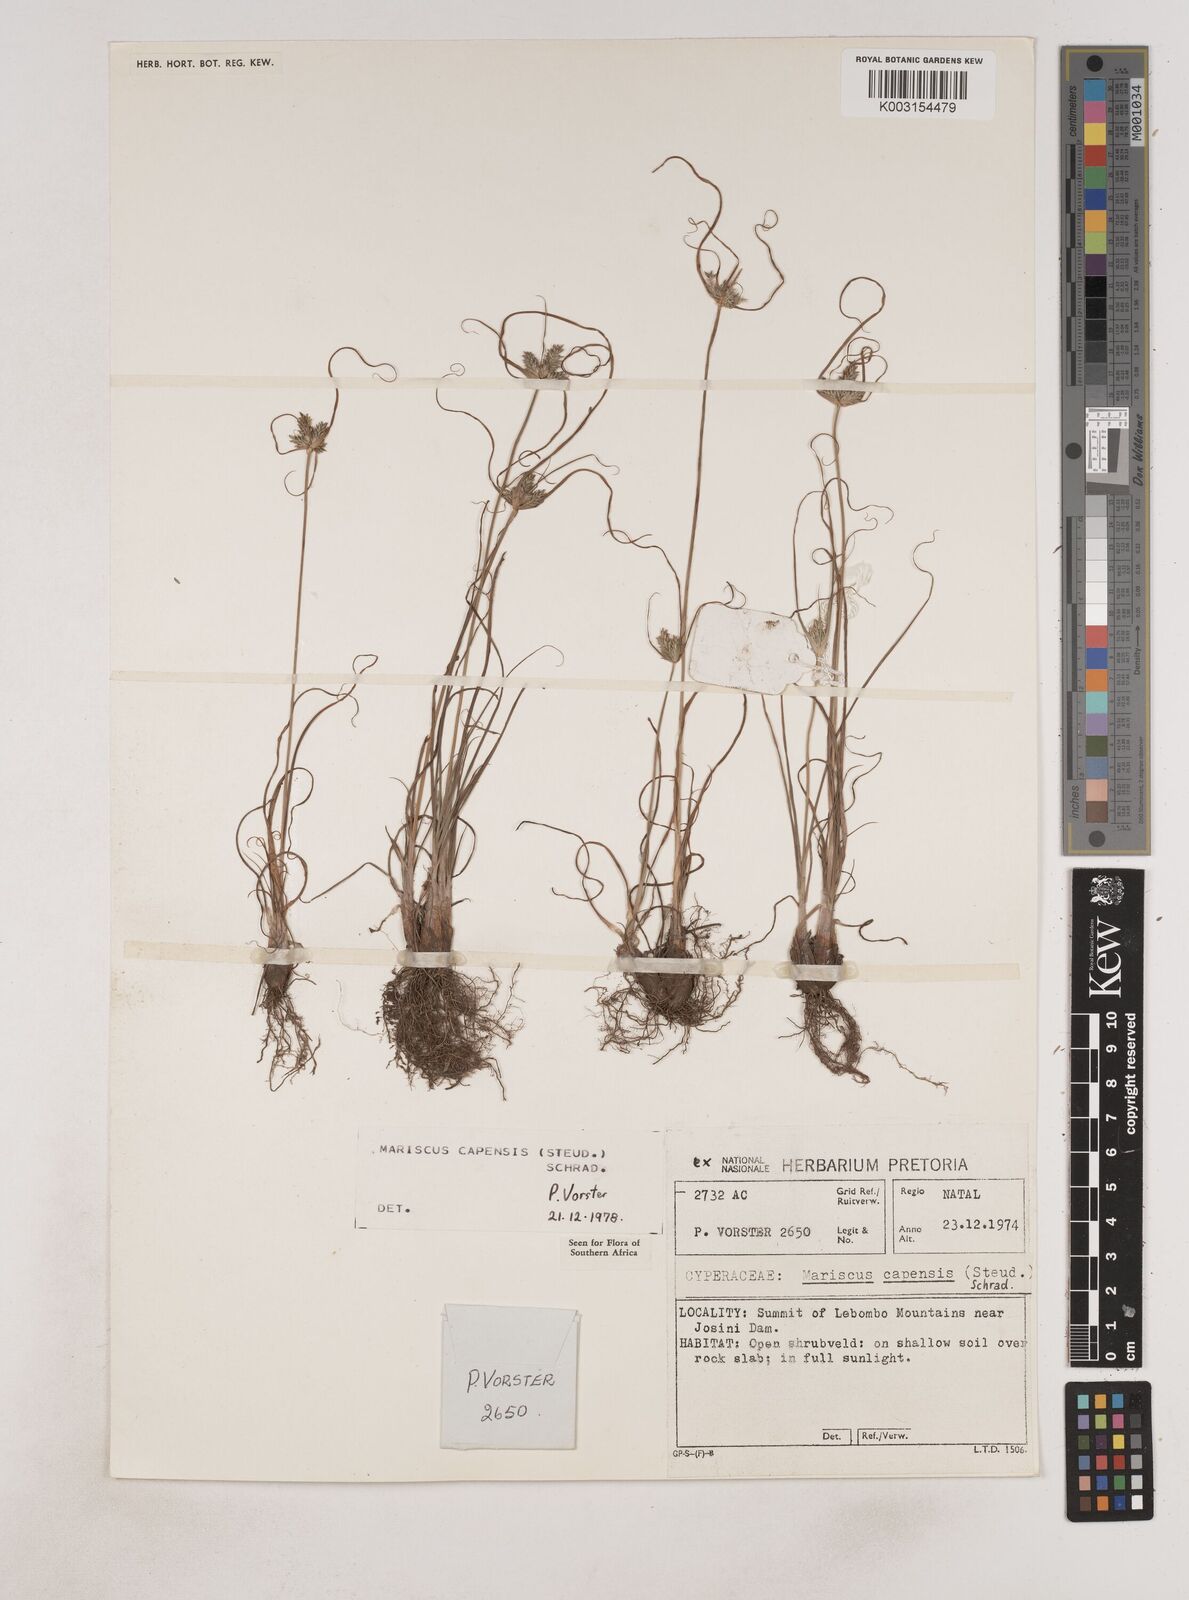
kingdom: Plantae
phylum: Tracheophyta
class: Liliopsida
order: Poales
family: Cyperaceae
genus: Cyperus
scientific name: Cyperus
